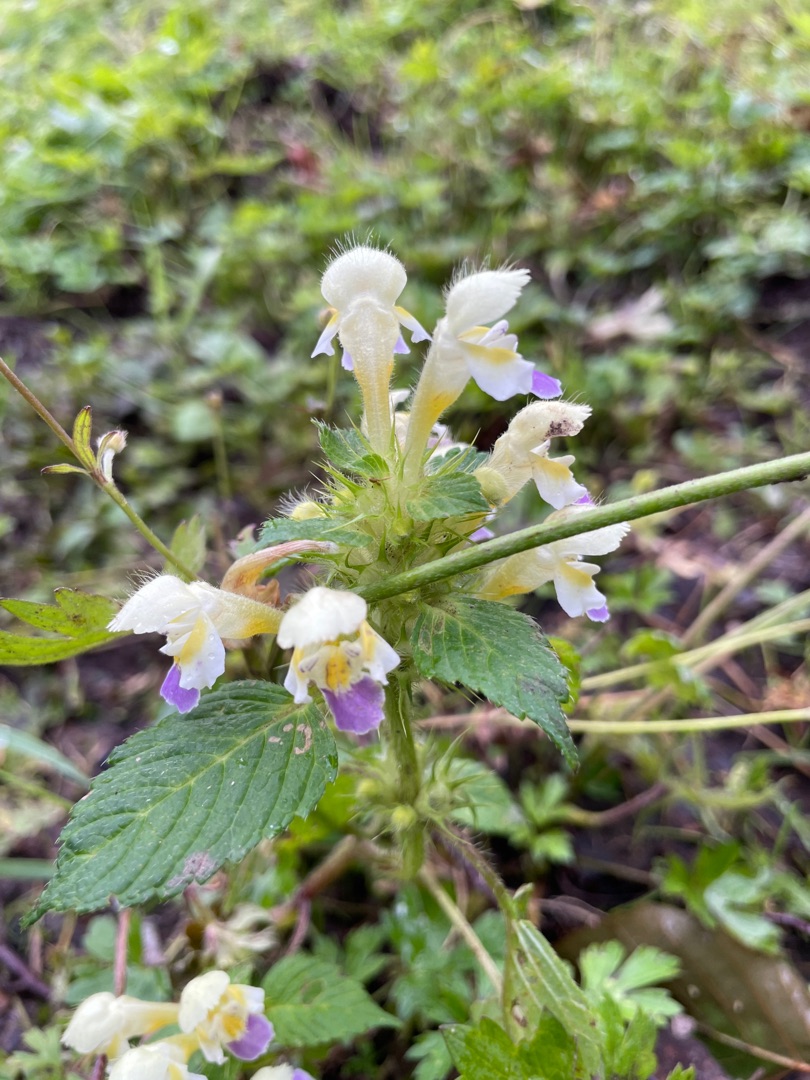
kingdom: Plantae
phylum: Tracheophyta
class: Magnoliopsida
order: Lamiales
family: Lamiaceae
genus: Galeopsis
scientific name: Galeopsis speciosa
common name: Hamp-hanekro
